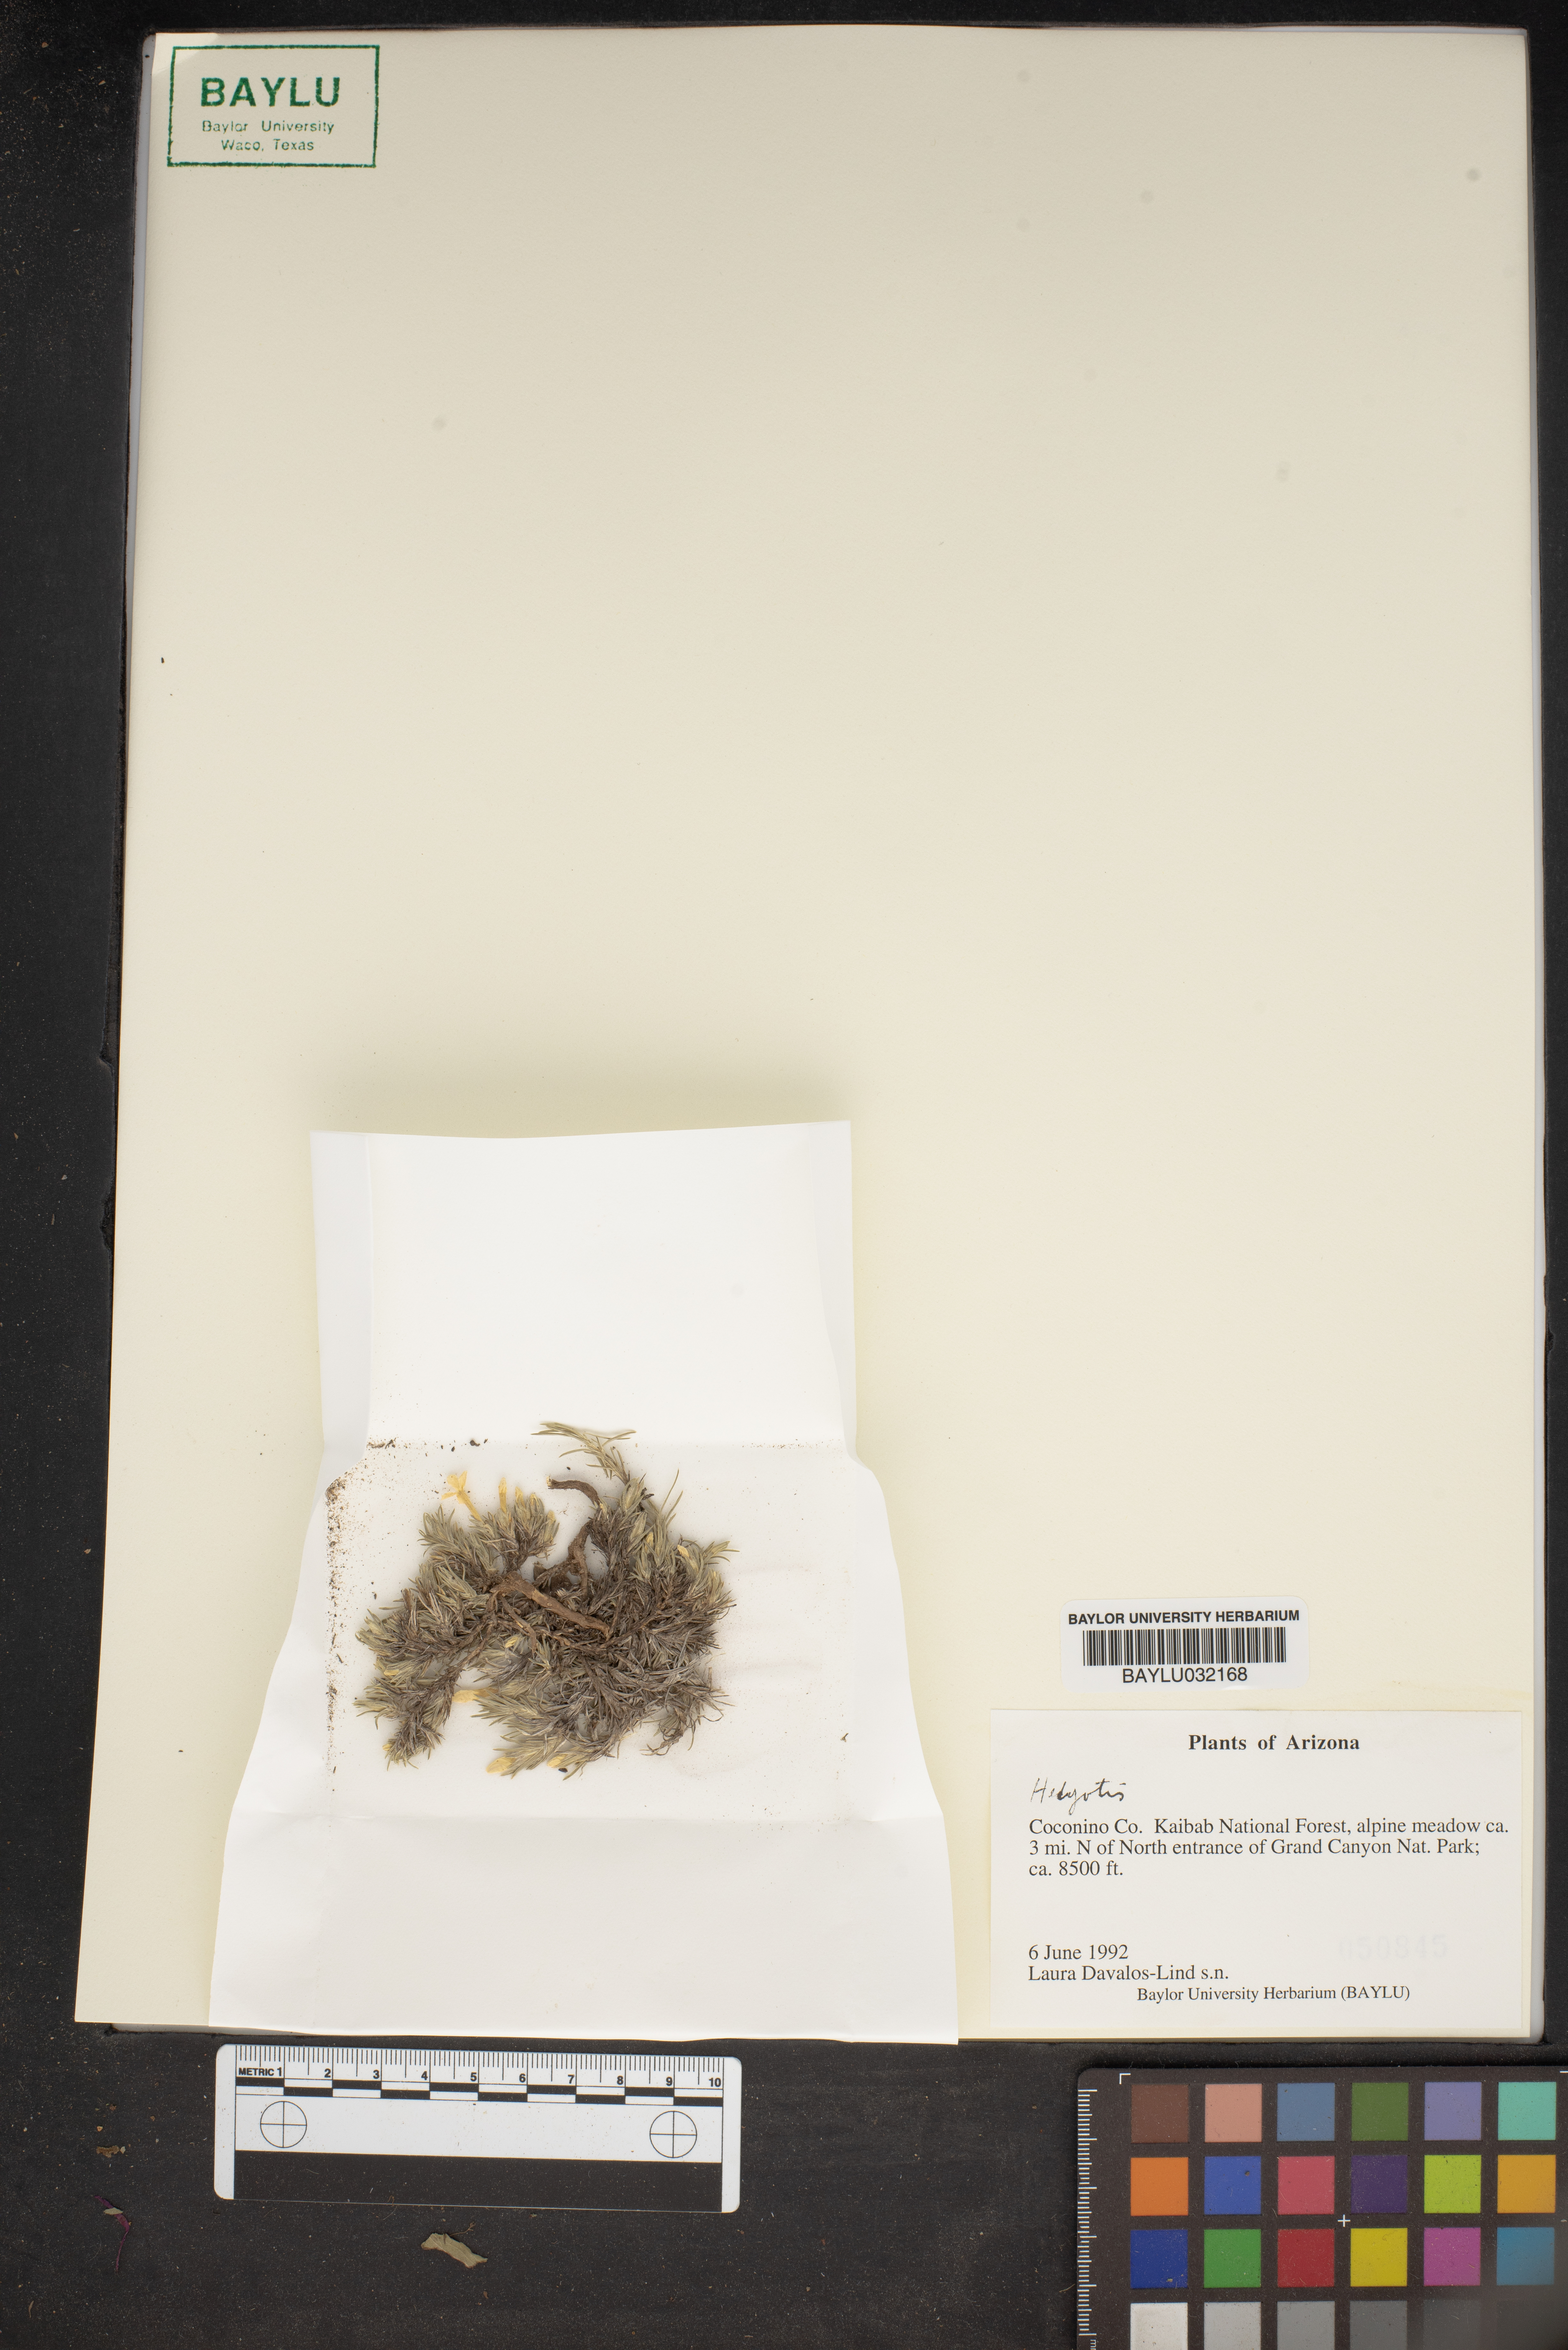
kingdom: Plantae
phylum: Tracheophyta
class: Magnoliopsida
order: Gentianales
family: Rubiaceae
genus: Hedyotis
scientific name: Hedyotis
